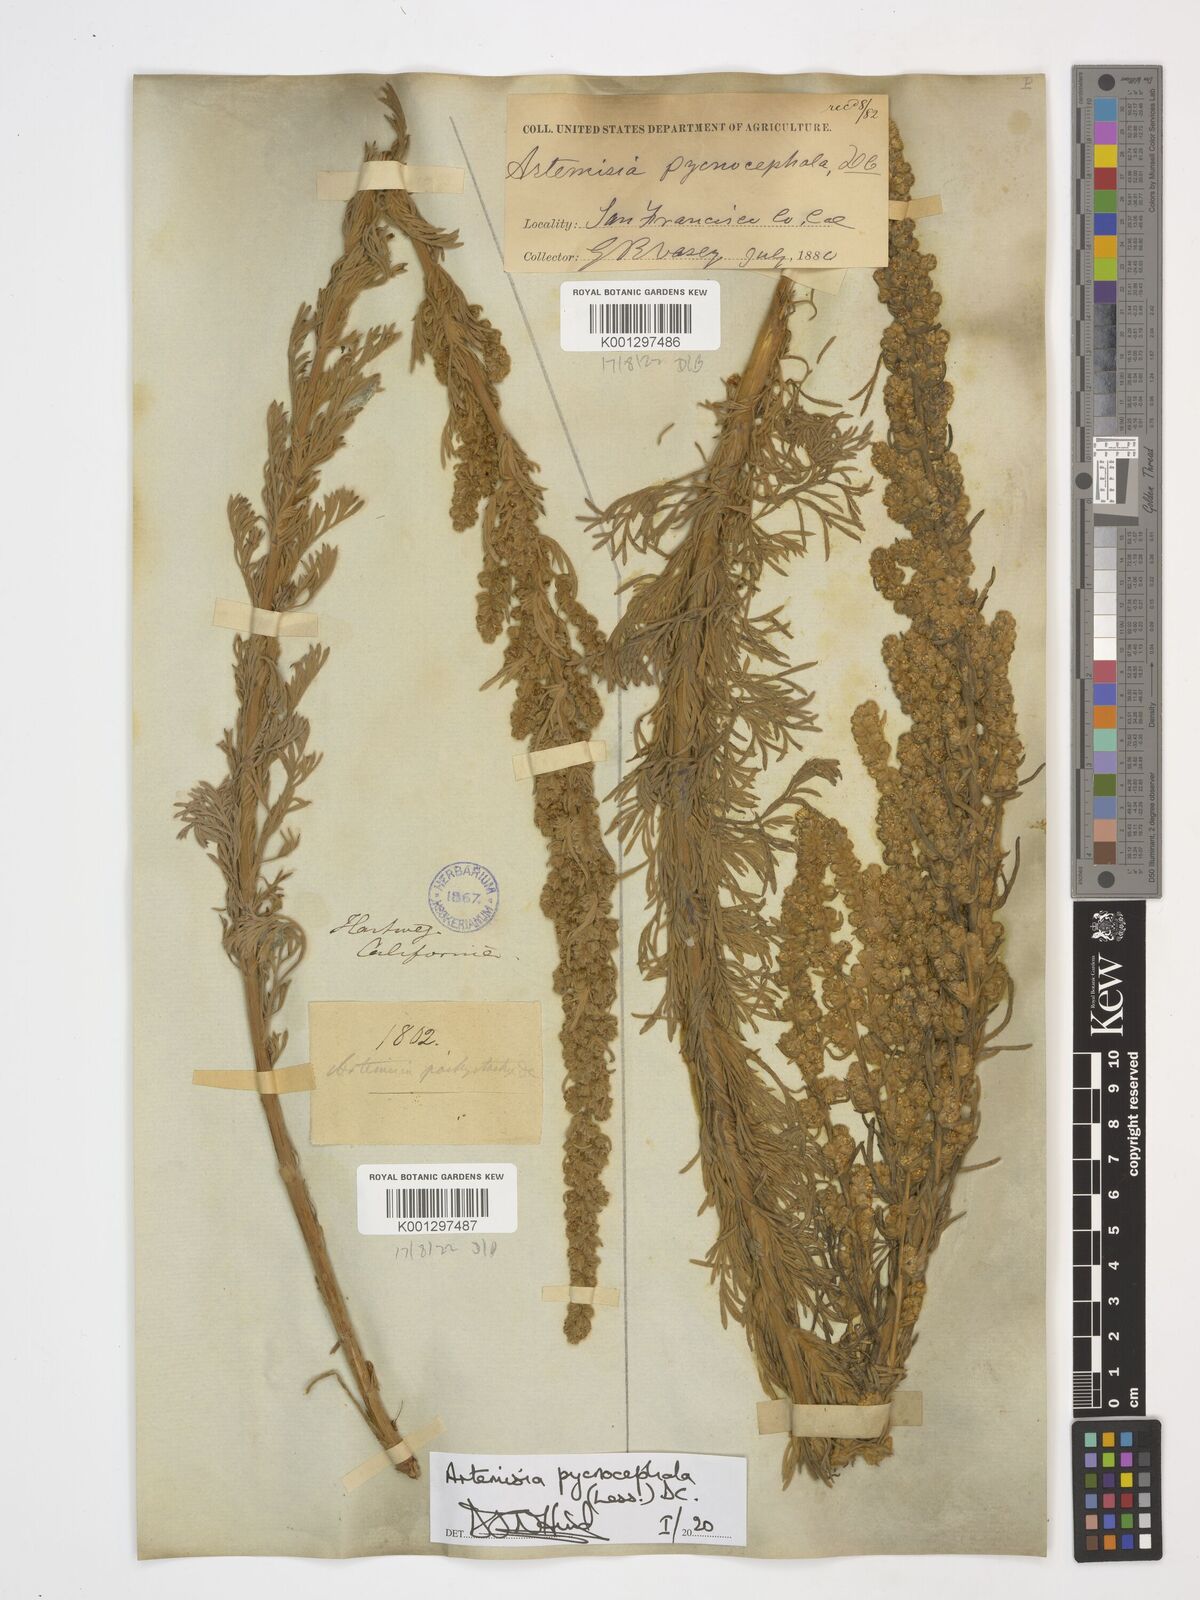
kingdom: Plantae
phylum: Tracheophyta
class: Magnoliopsida
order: Asterales
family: Asteraceae
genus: Artemisia
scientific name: Artemisia pycnocephala
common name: Coastal sagewort
